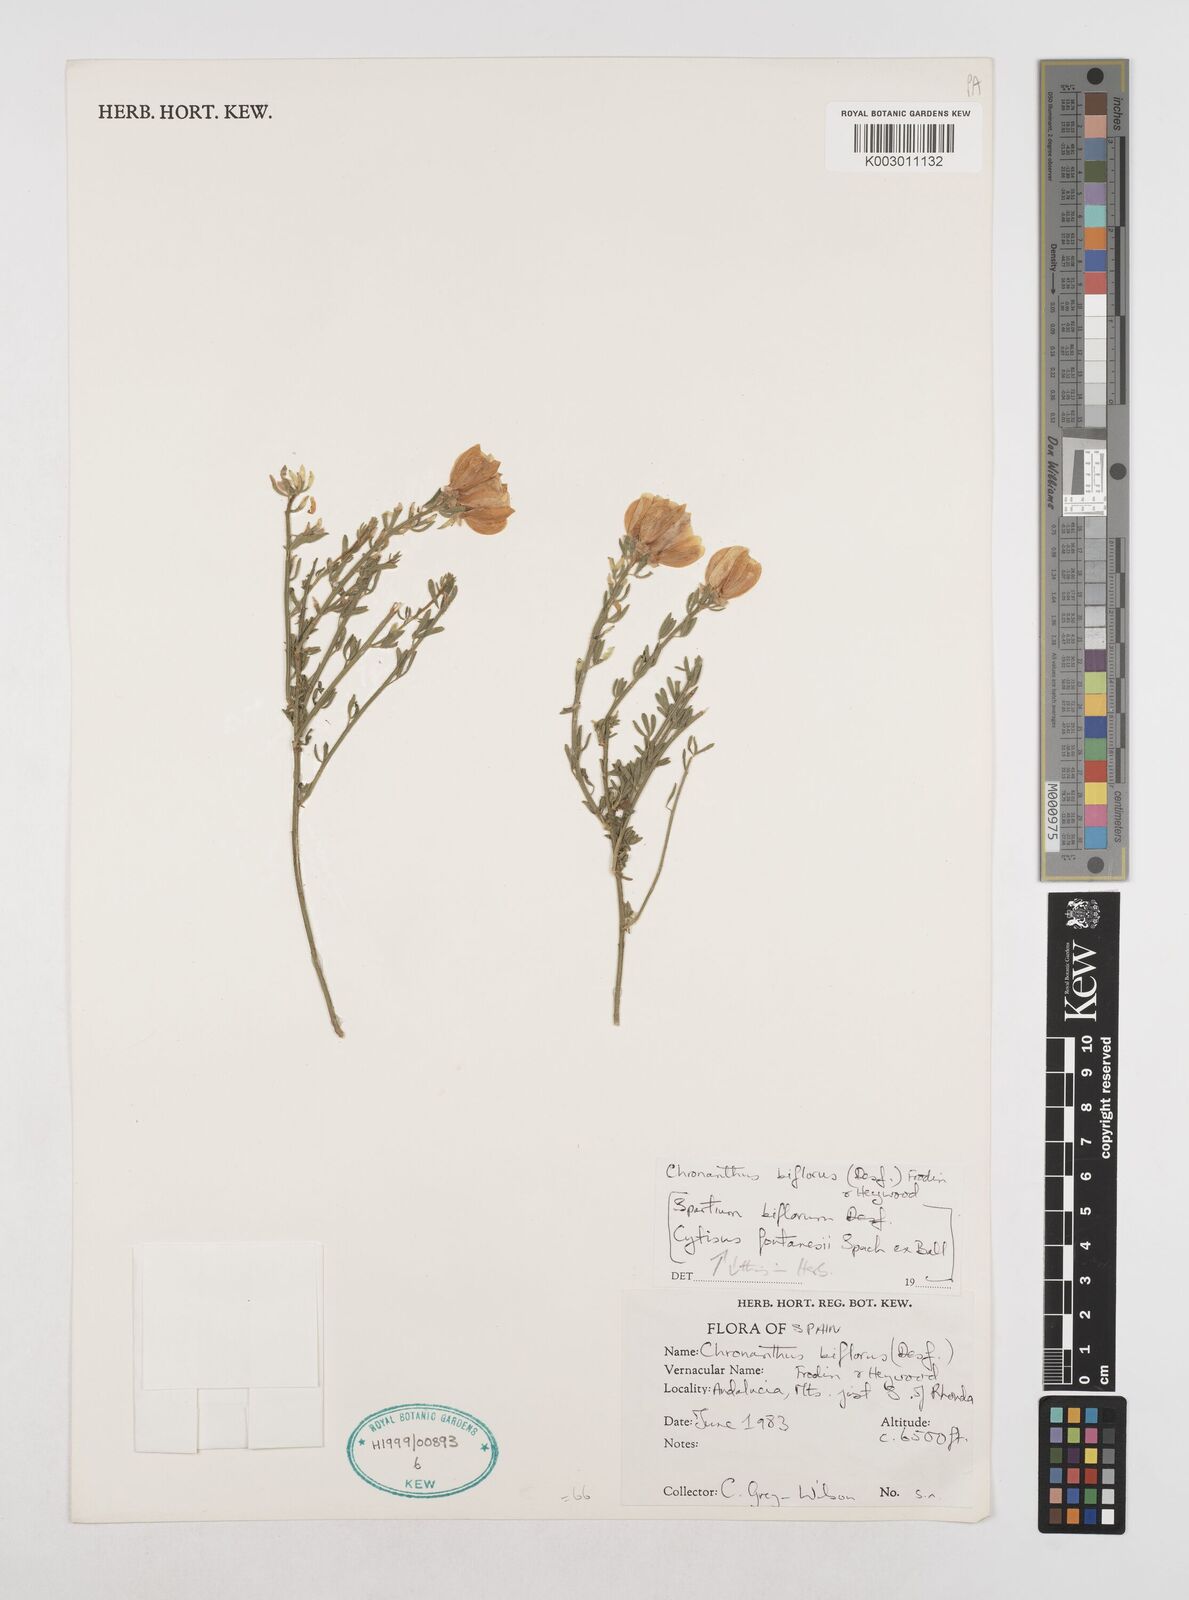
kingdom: Plantae
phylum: Tracheophyta
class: Magnoliopsida
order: Fabales
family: Fabaceae
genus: Cytisus
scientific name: Cytisus fontanesii
